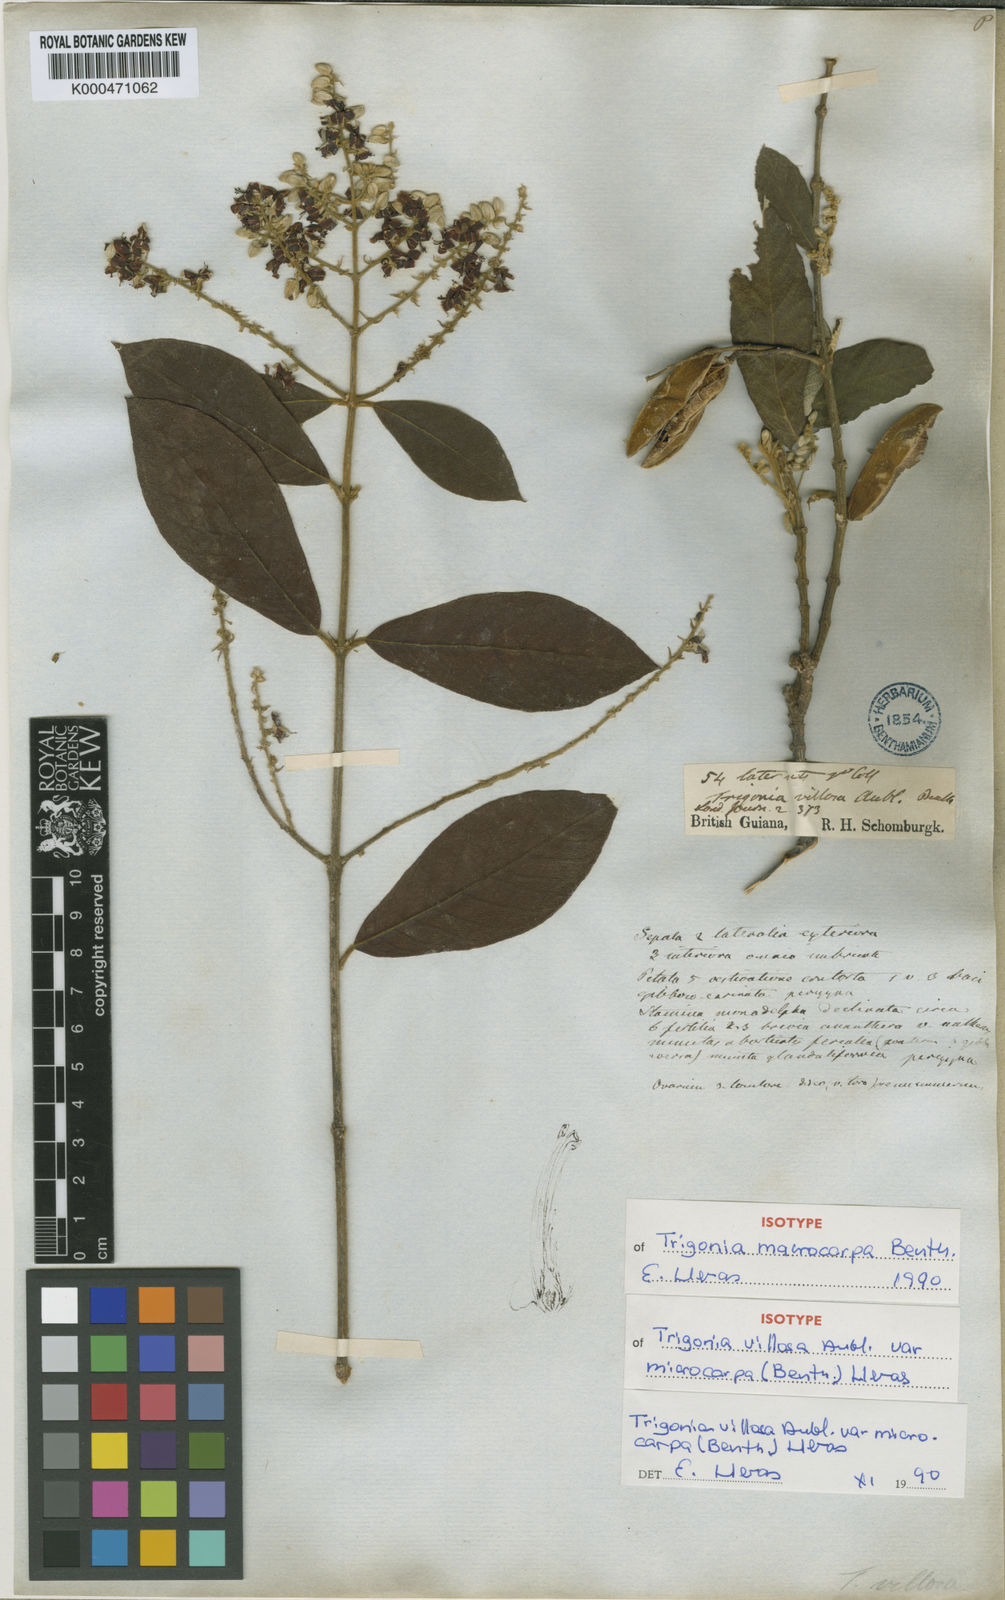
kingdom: Plantae
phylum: Tracheophyta
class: Magnoliopsida
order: Malpighiales
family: Trigoniaceae
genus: Trigonia
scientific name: Trigonia villosa
